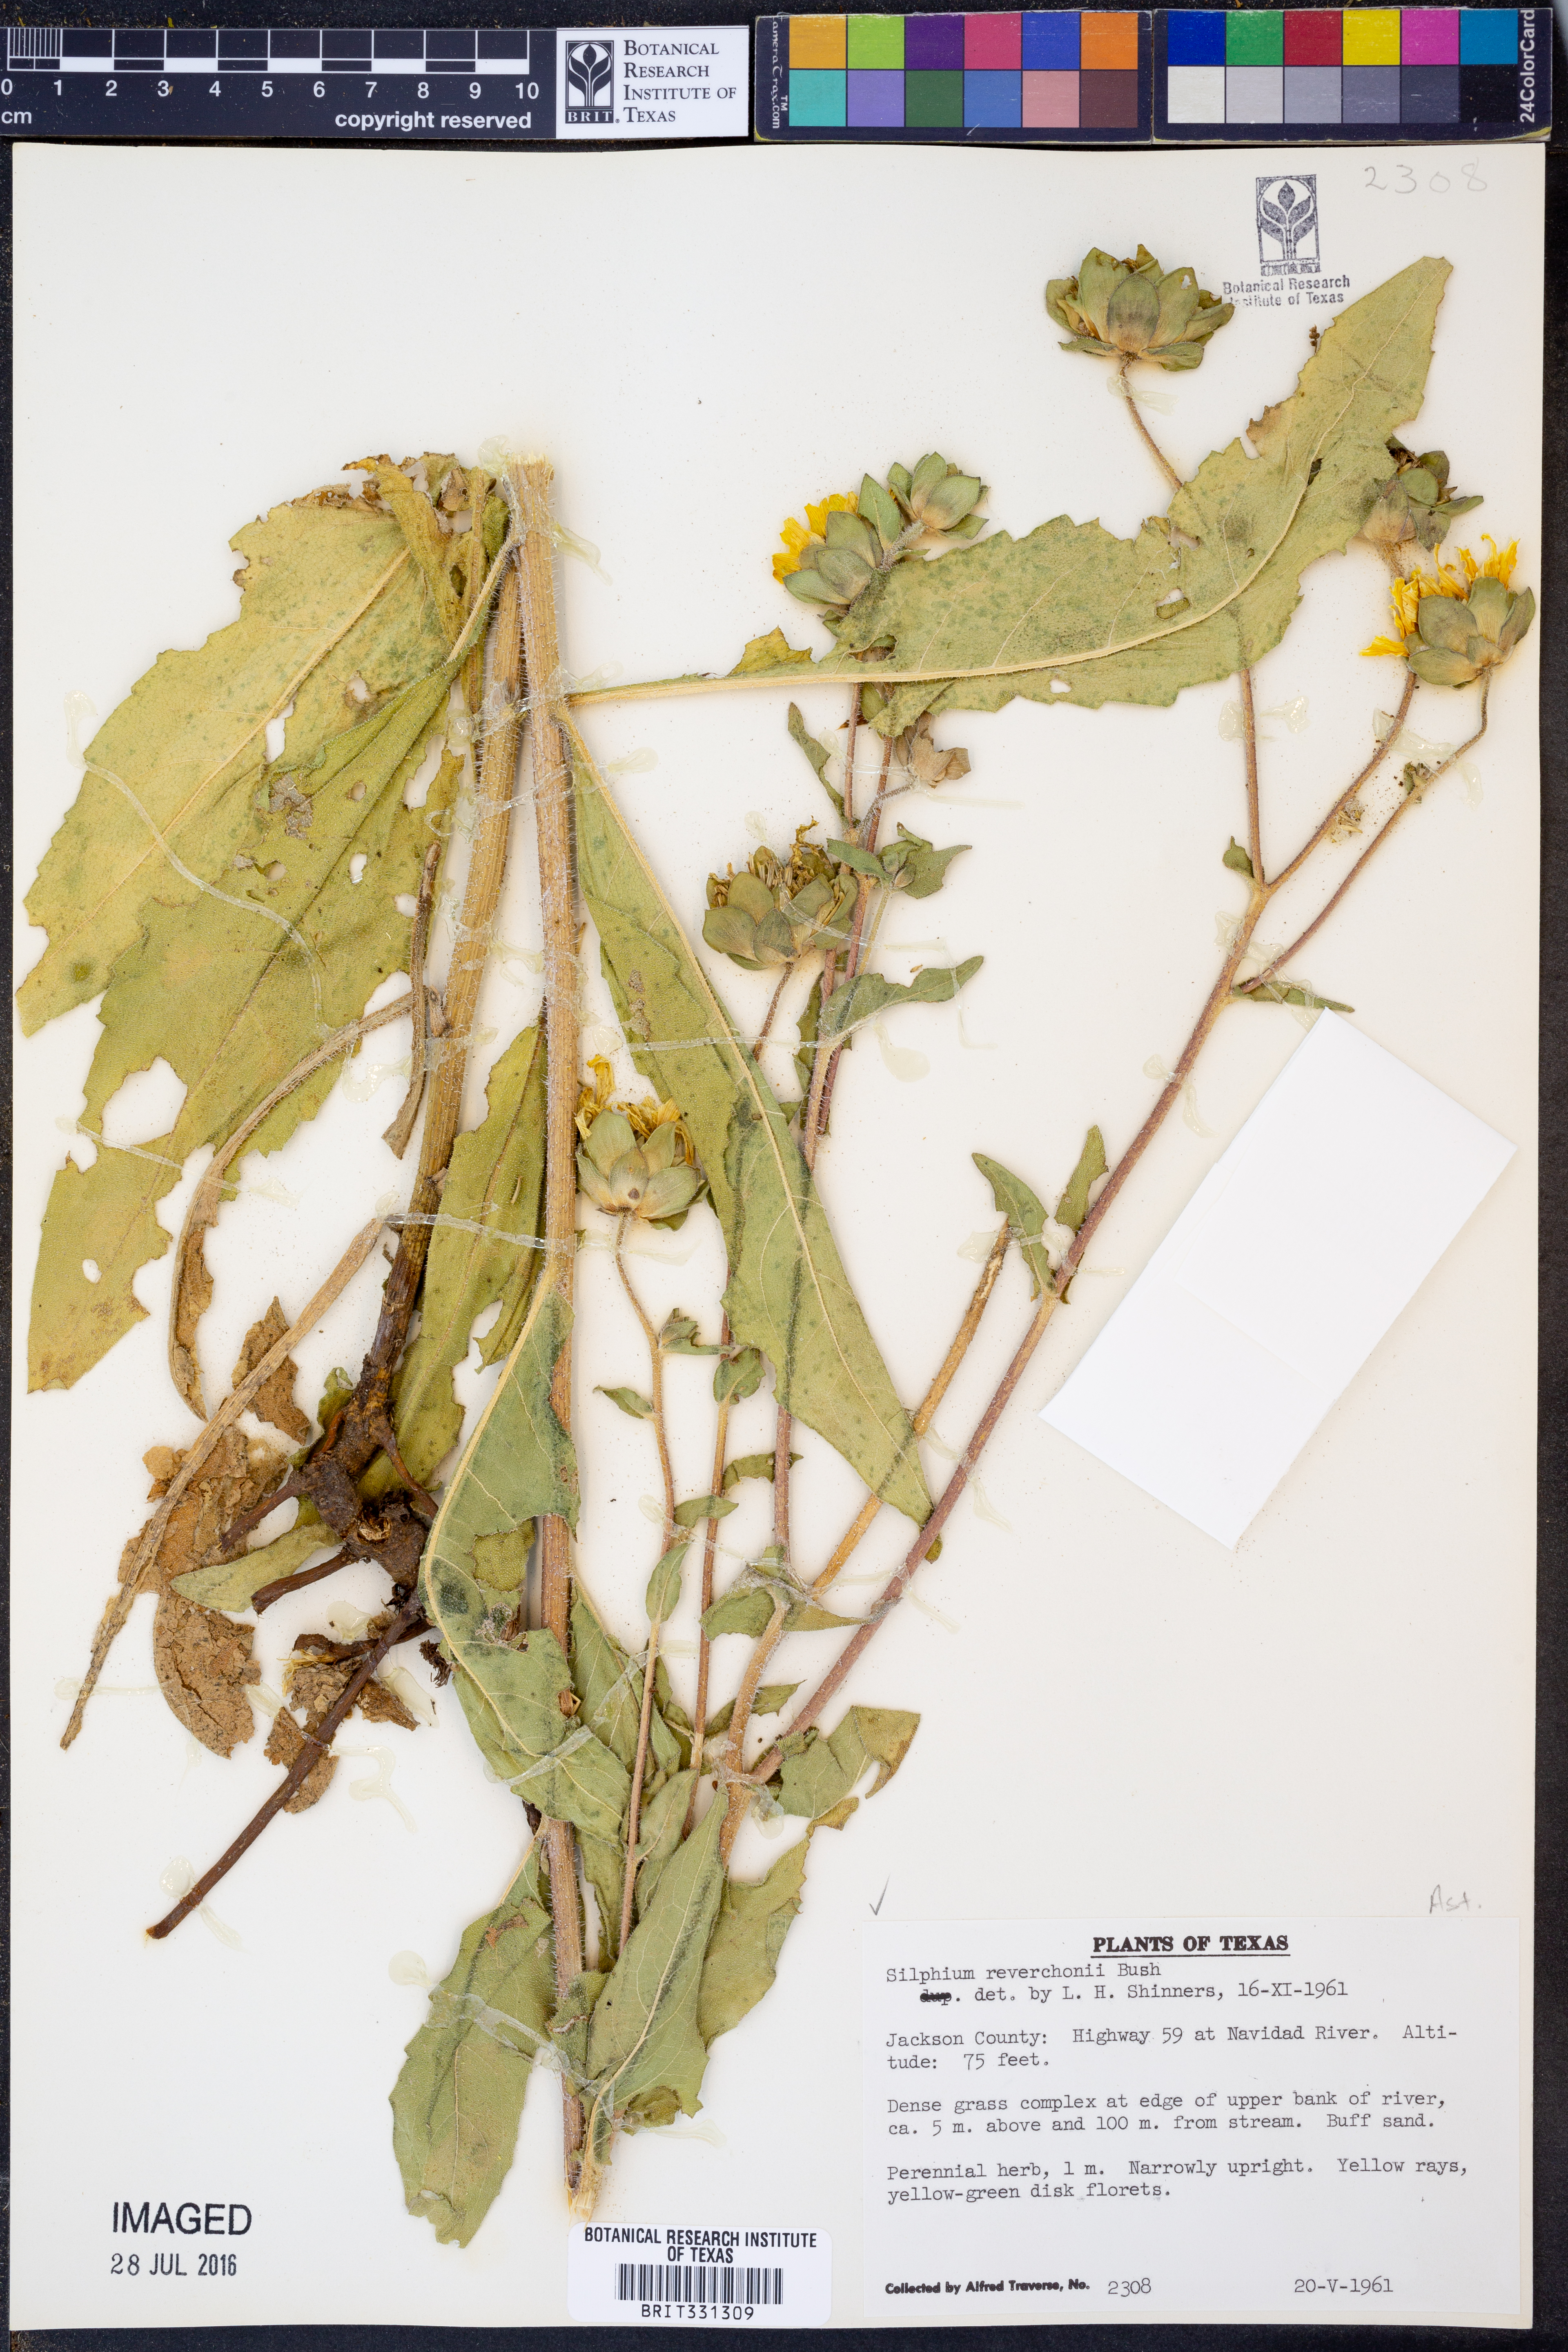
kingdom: Plantae
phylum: Tracheophyta
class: Magnoliopsida
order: Asterales
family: Asteraceae
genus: Silphium
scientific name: Silphium radula
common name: Roughleaf rosinweed
